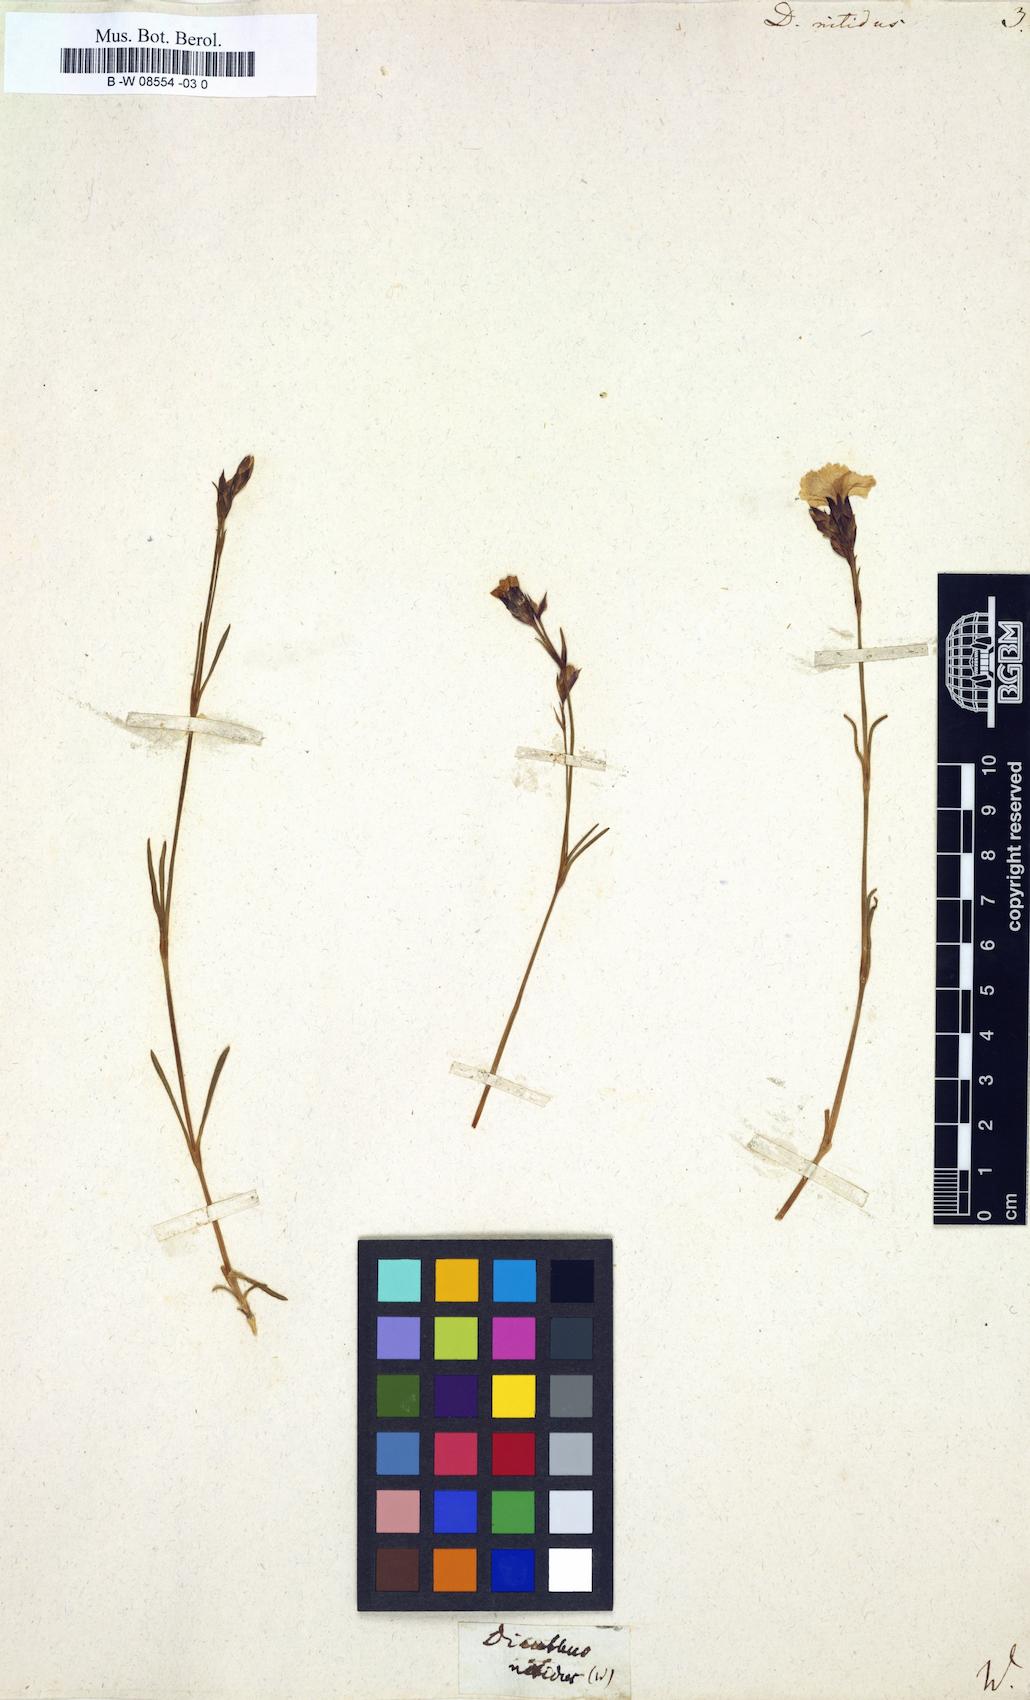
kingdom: Plantae
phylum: Tracheophyta
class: Magnoliopsida
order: Caryophyllales
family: Caryophyllaceae
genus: Dianthus
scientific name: Dianthus nitidus
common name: Carpathian glossy pink
